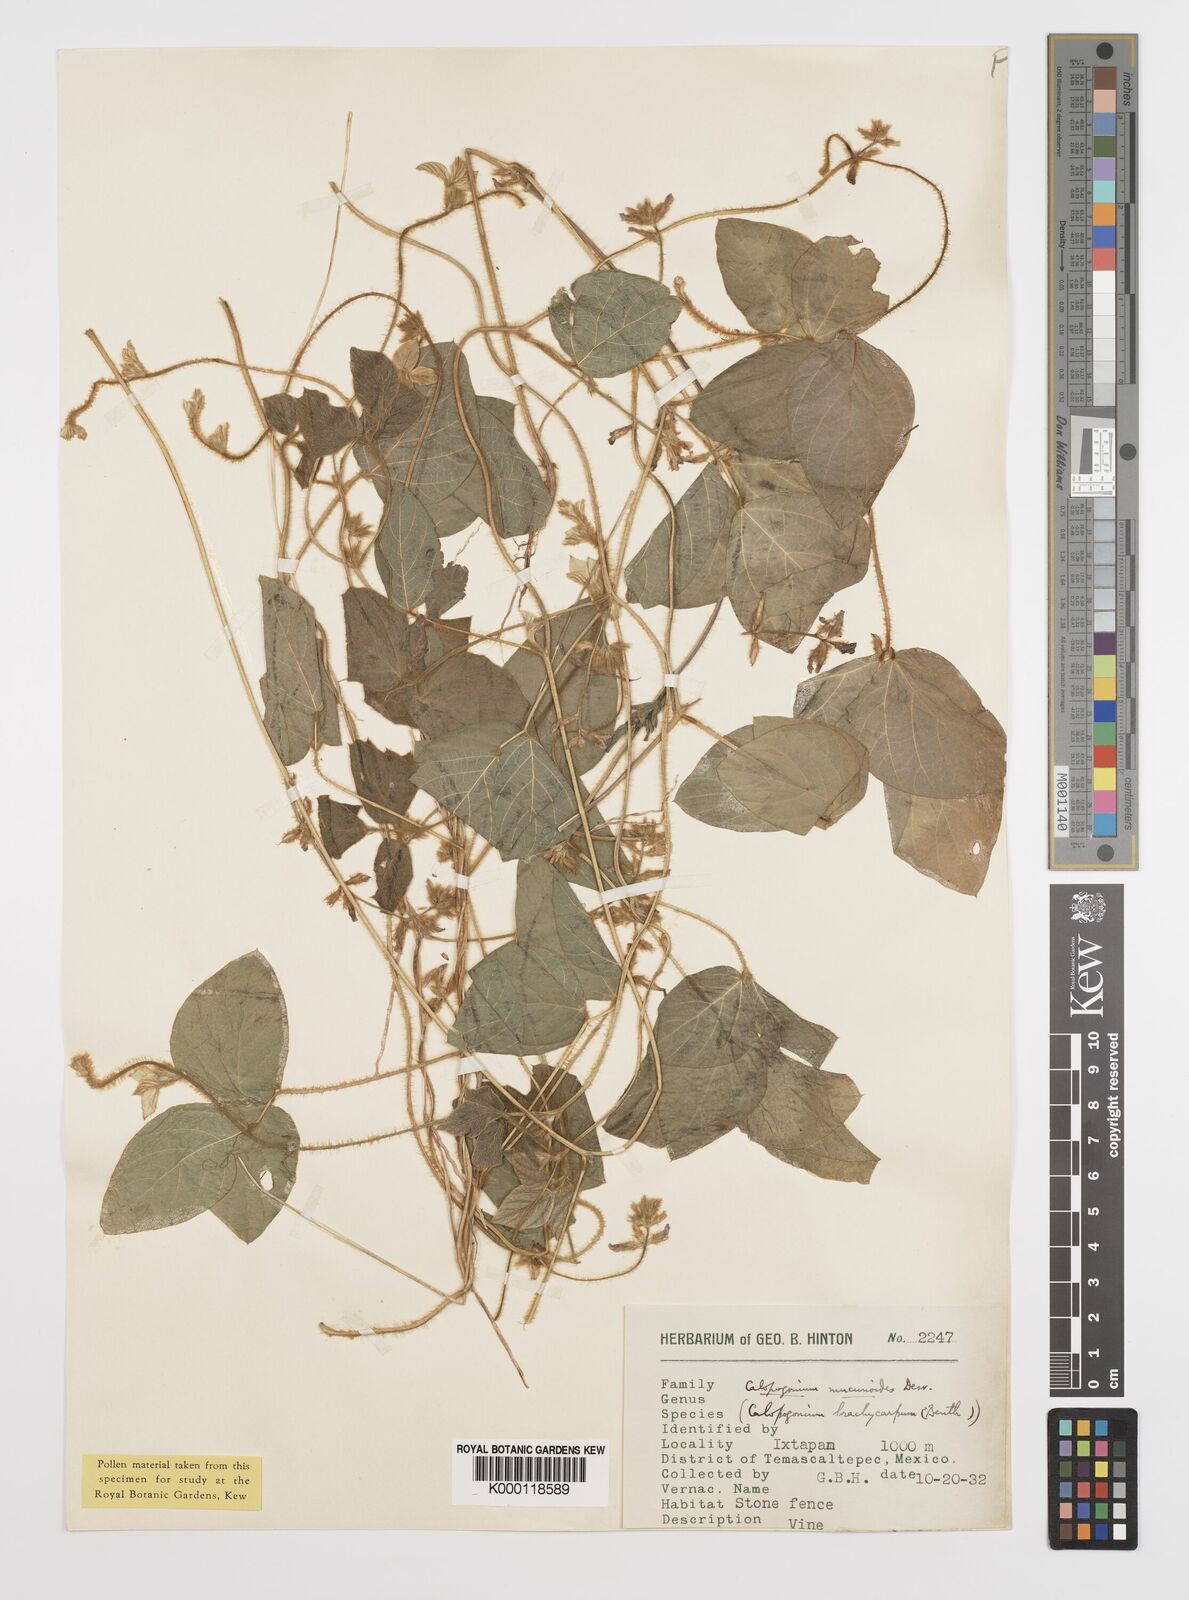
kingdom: Plantae
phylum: Tracheophyta
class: Magnoliopsida
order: Fabales
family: Fabaceae
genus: Calopogonium
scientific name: Calopogonium mucunoides
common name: Calopo
